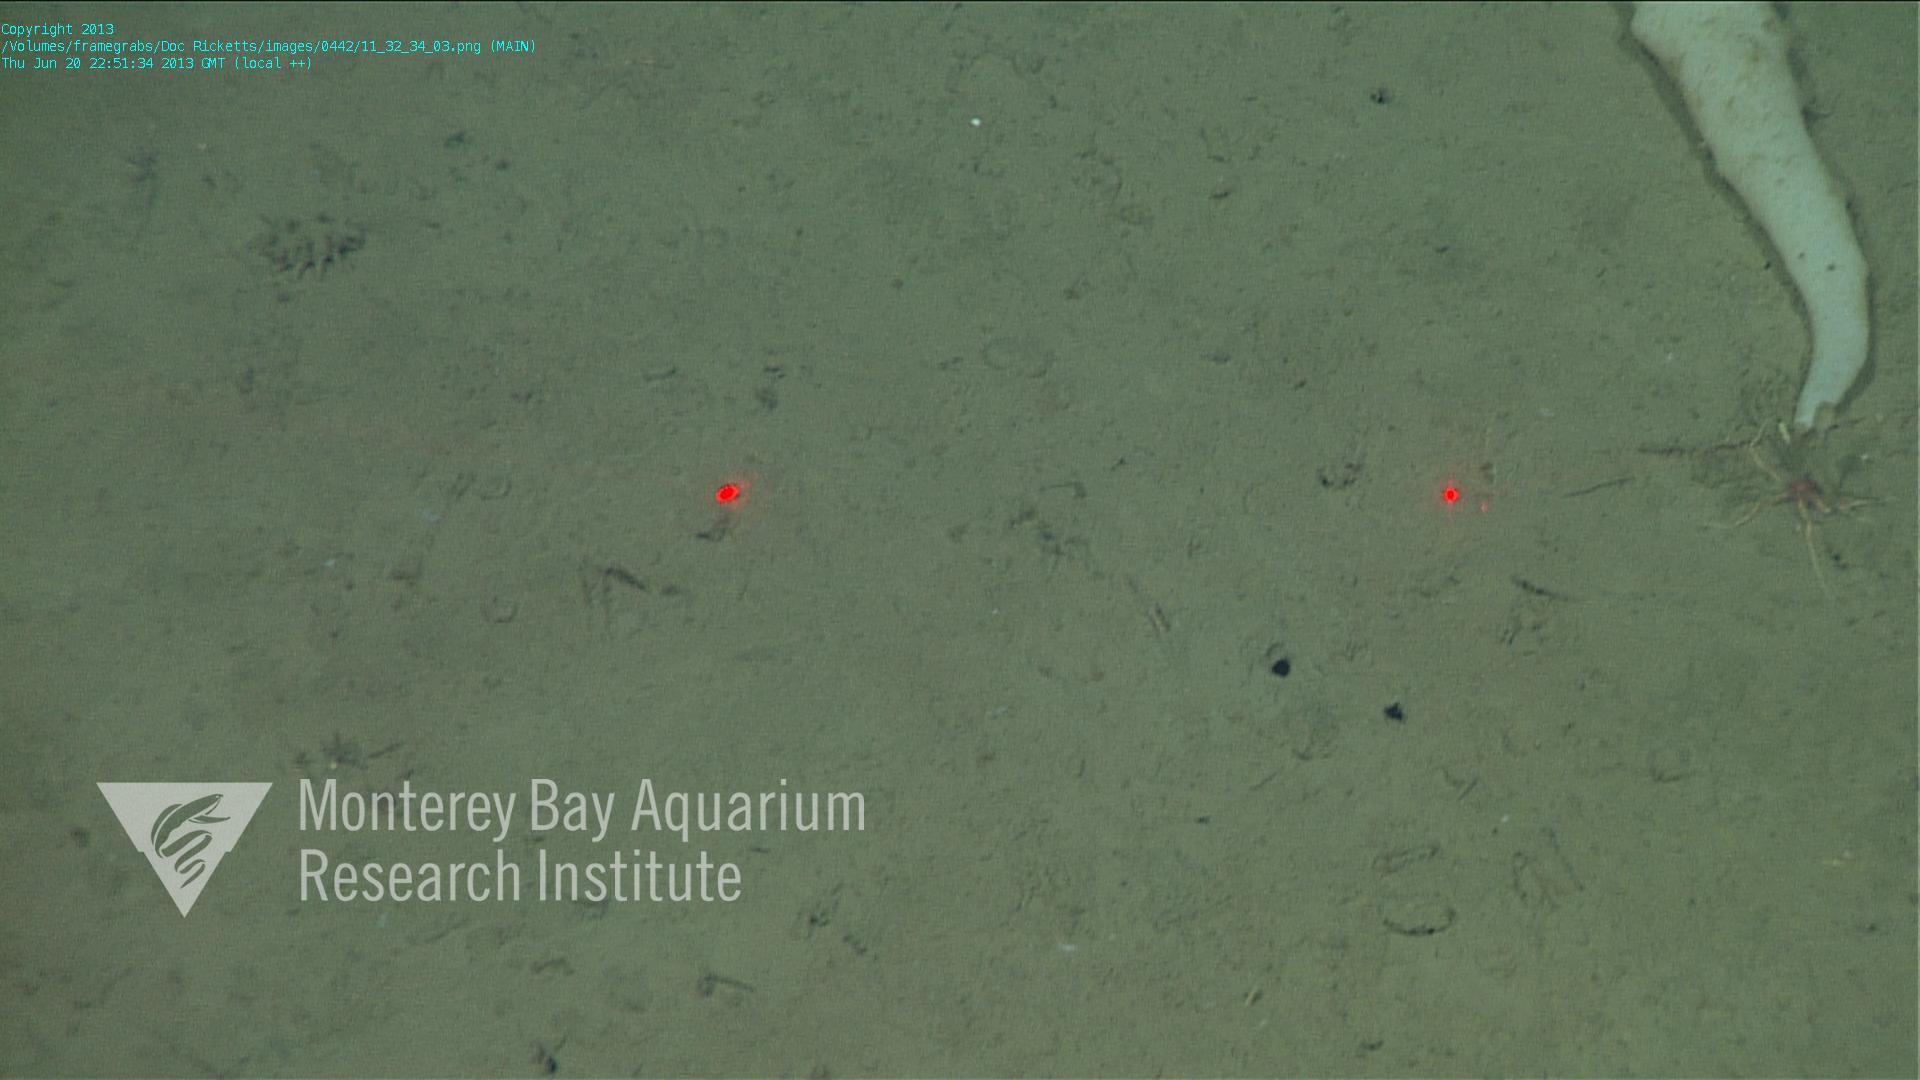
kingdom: Animalia
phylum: Porifera
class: Hexactinellida
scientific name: Hexactinellida
